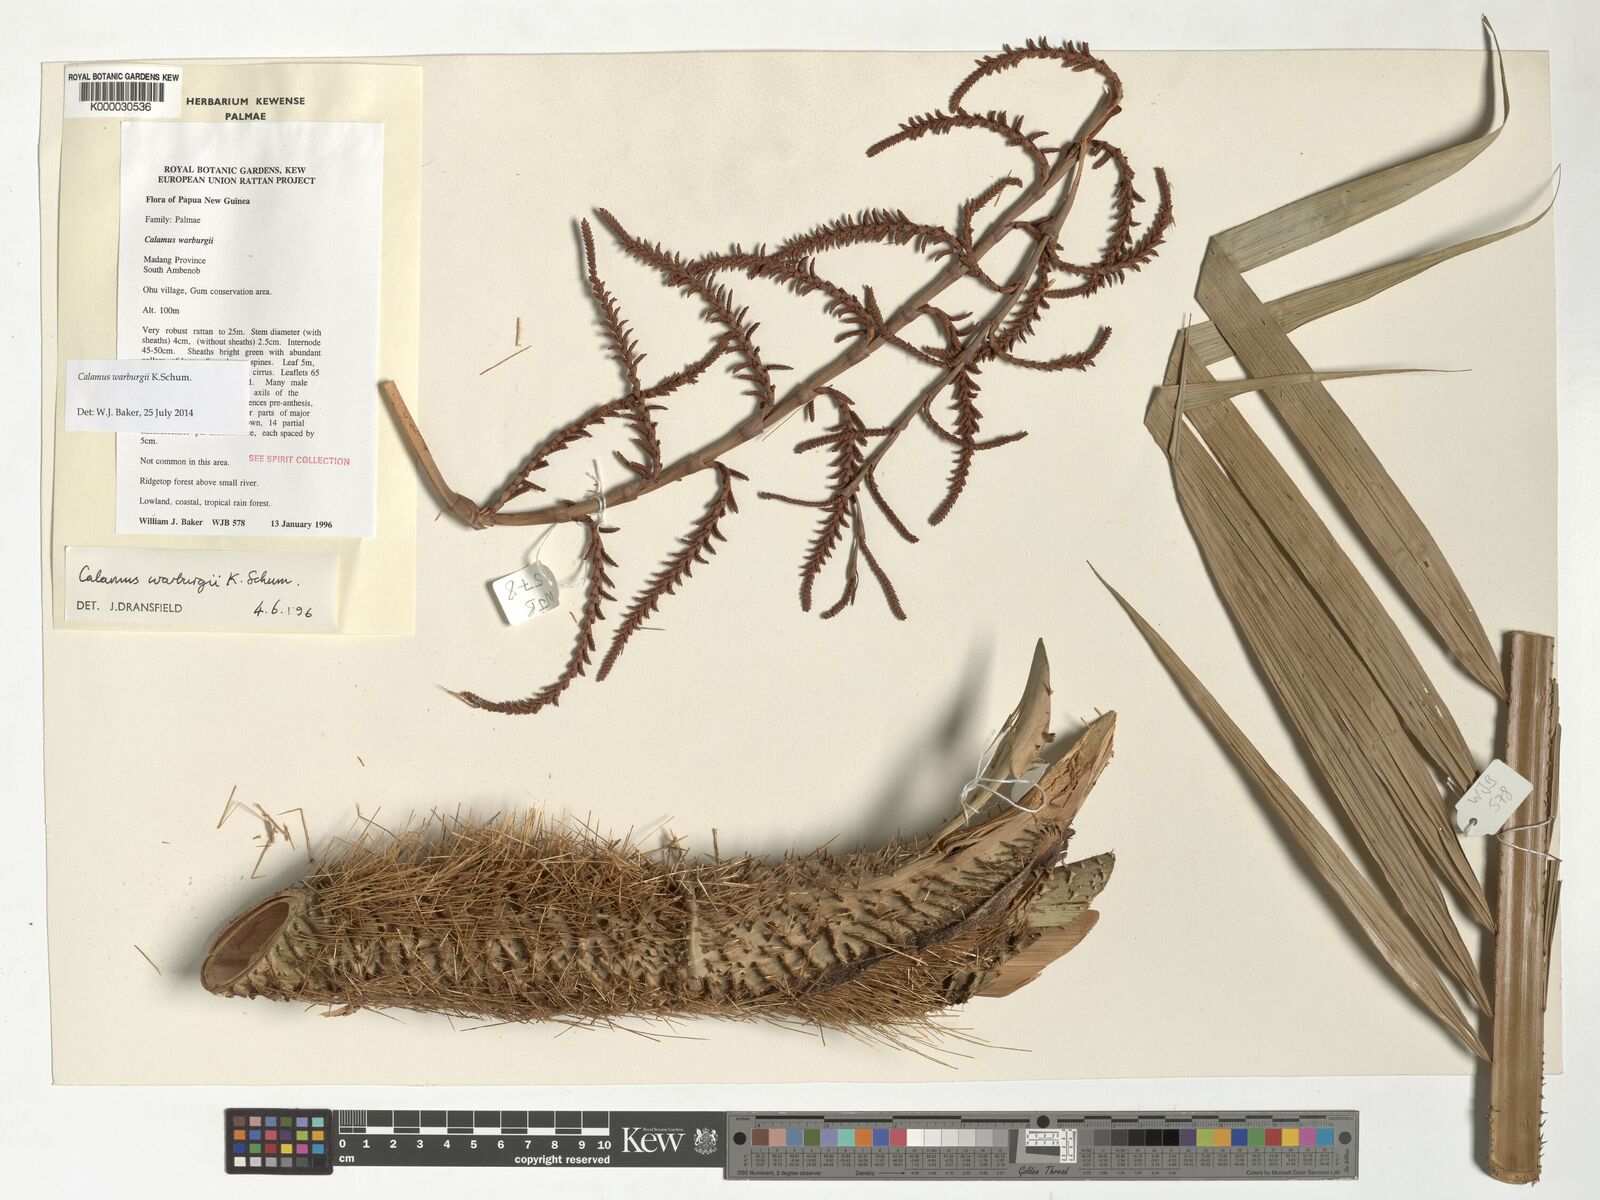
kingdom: Plantae
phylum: Tracheophyta
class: Liliopsida
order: Arecales
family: Arecaceae
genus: Calamus
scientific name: Calamus warburgii
